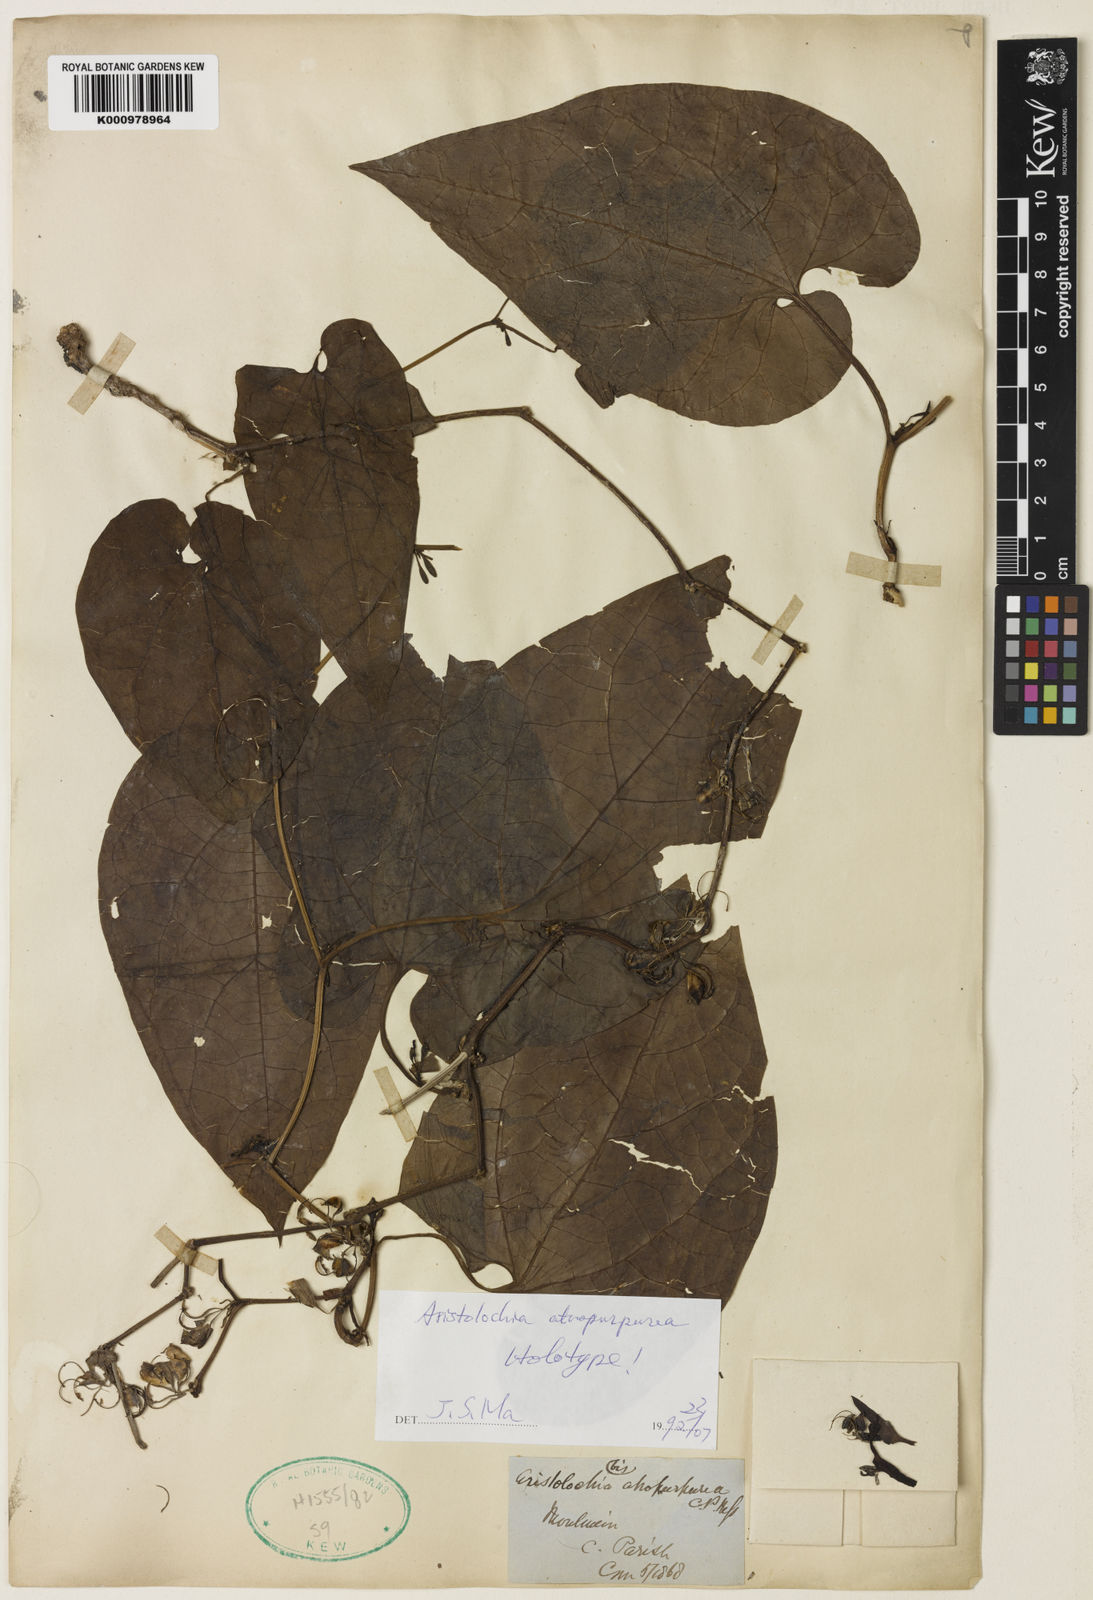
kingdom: Plantae
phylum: Tracheophyta
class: Magnoliopsida
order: Piperales
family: Aristolochiaceae
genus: Aristolochia
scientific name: Aristolochia atropurpurea
